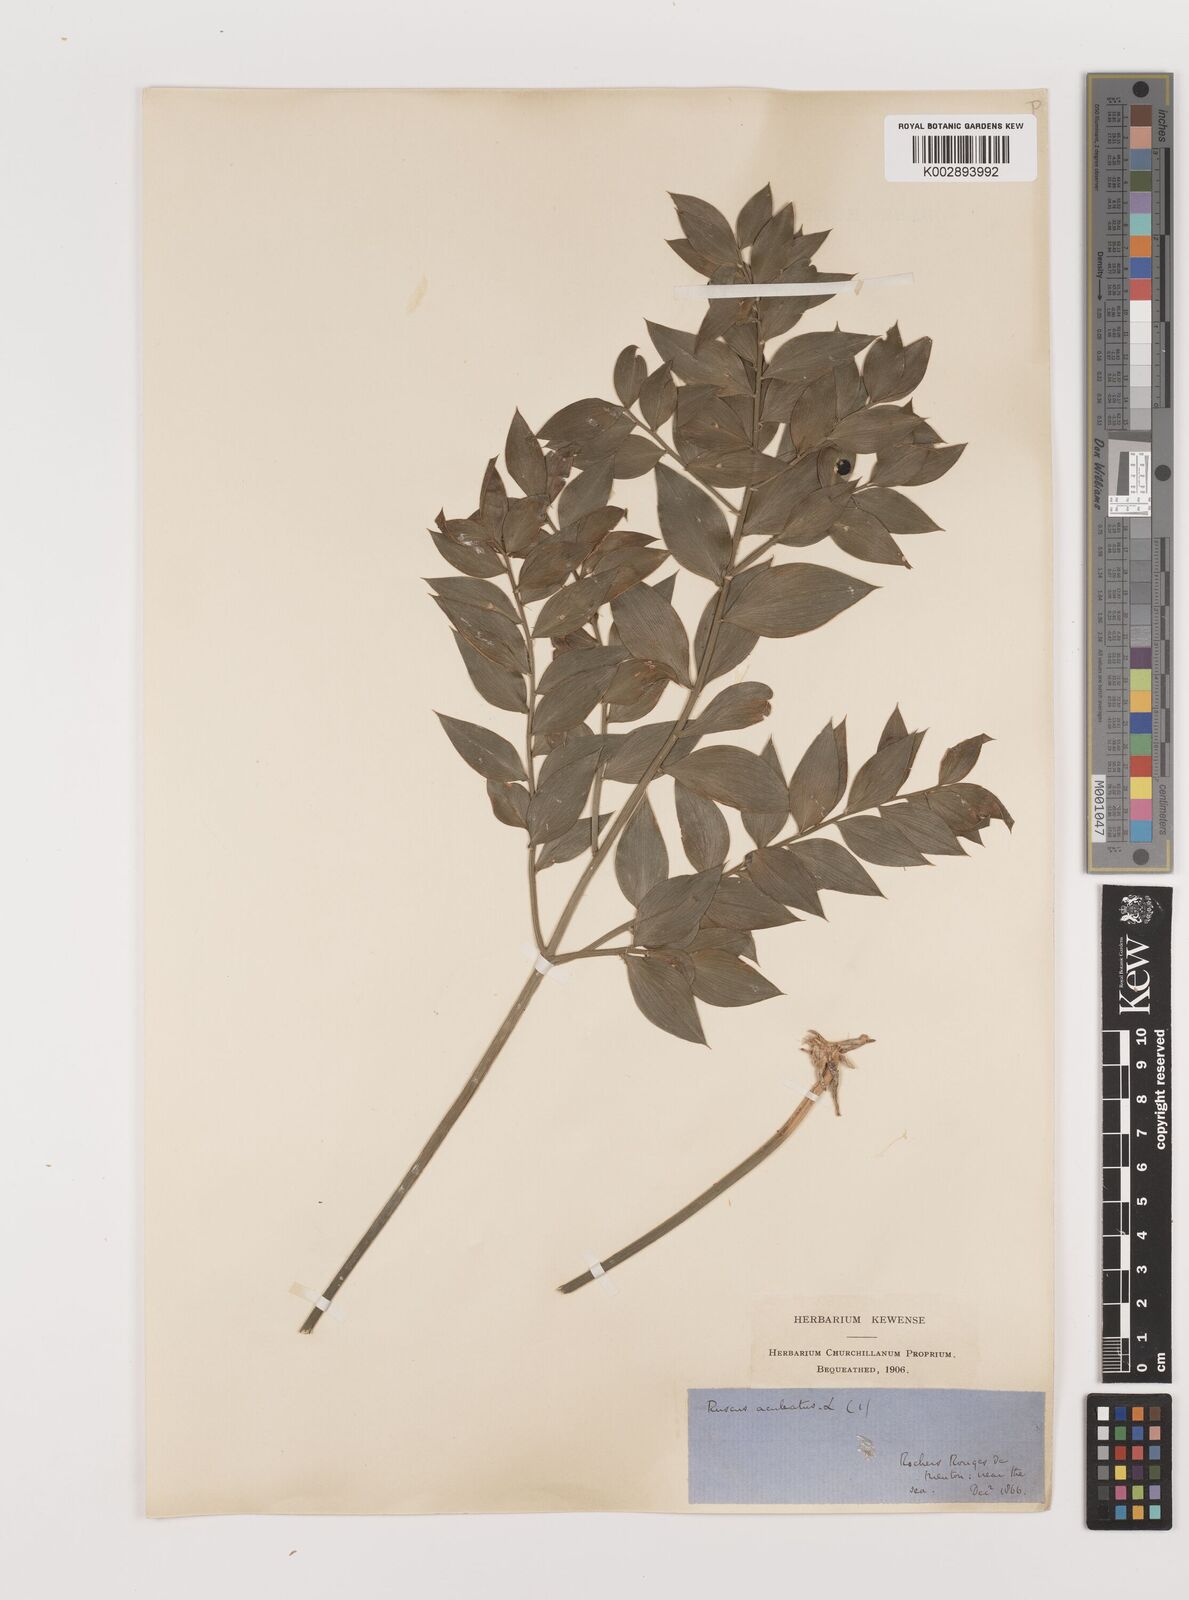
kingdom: Plantae
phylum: Tracheophyta
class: Liliopsida
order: Asparagales
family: Asparagaceae
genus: Ruscus
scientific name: Ruscus hypophyllum
